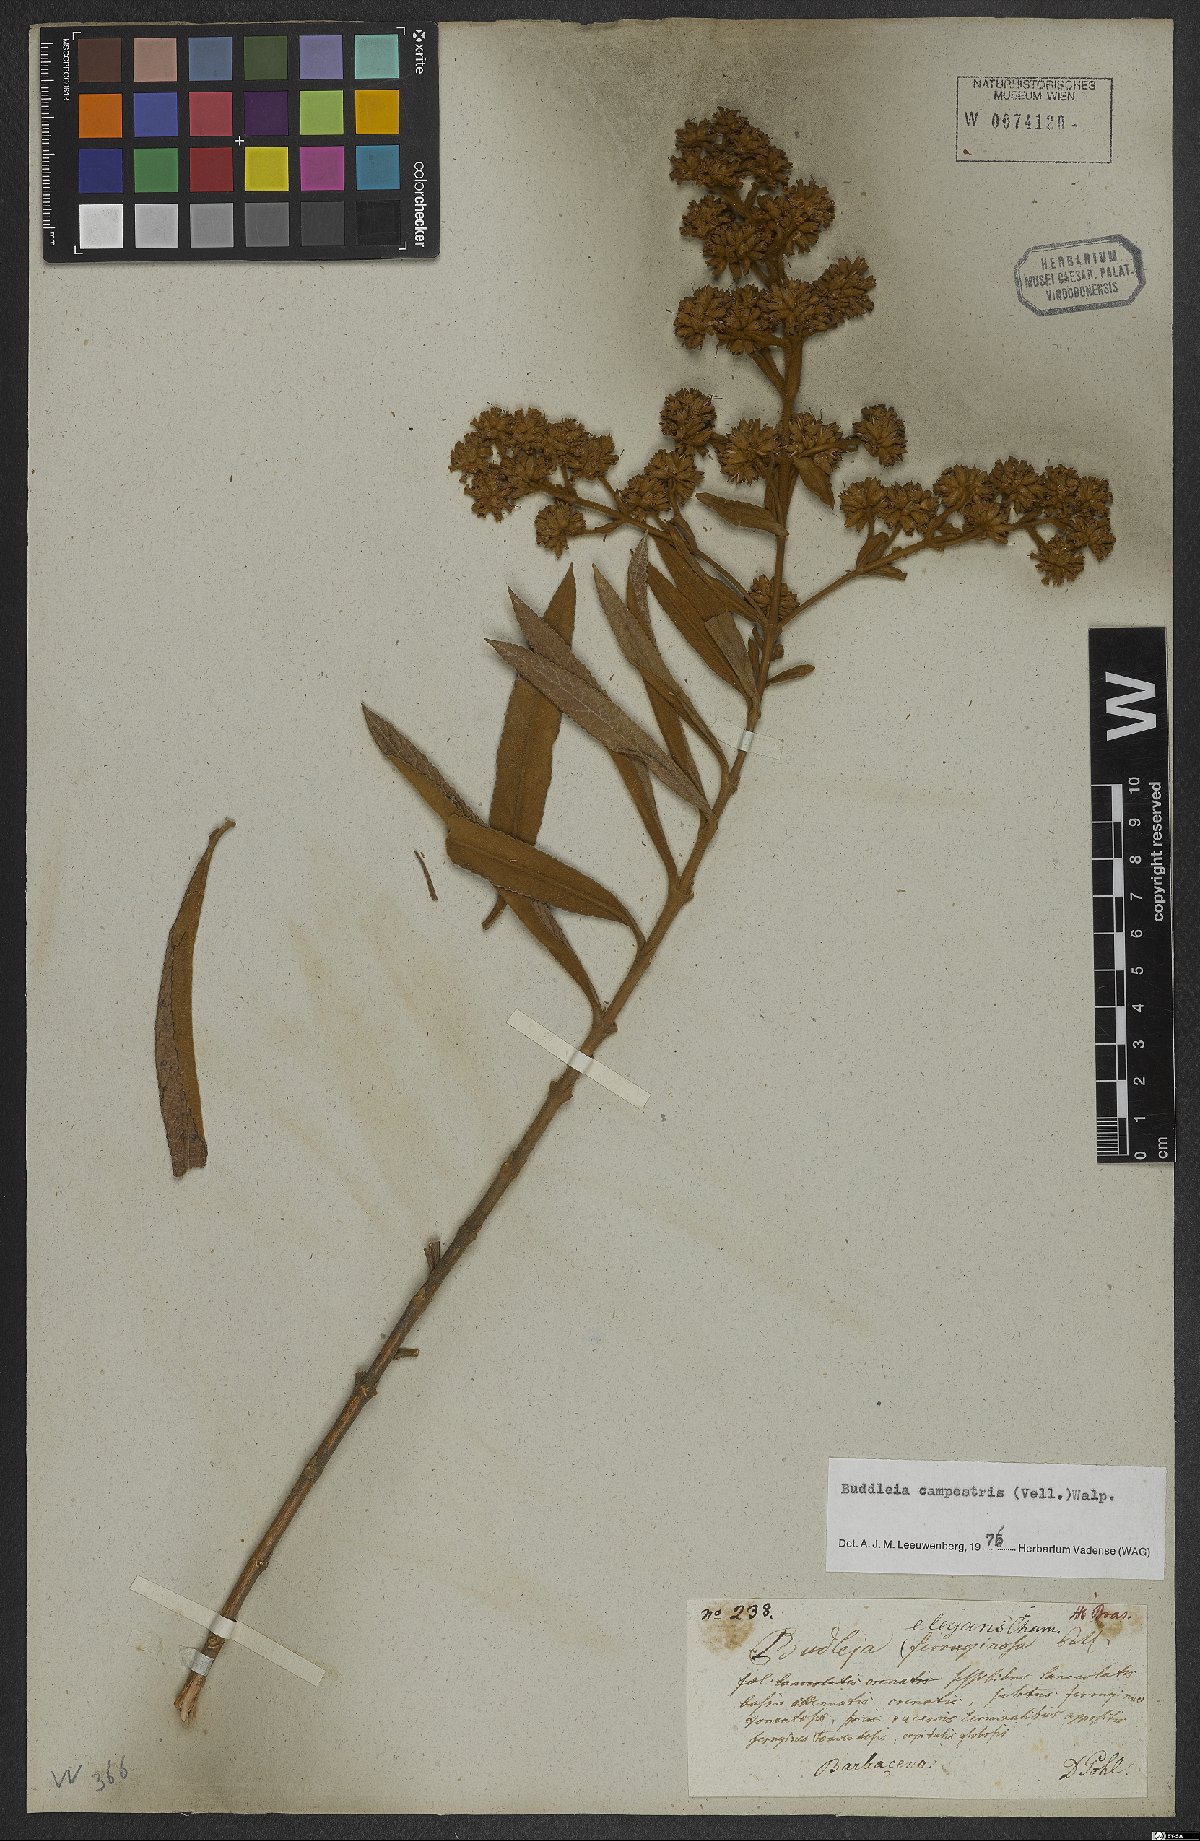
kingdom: Plantae
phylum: Tracheophyta
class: Magnoliopsida
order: Lamiales
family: Scrophulariaceae
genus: Buddleja
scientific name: Buddleja elegans
